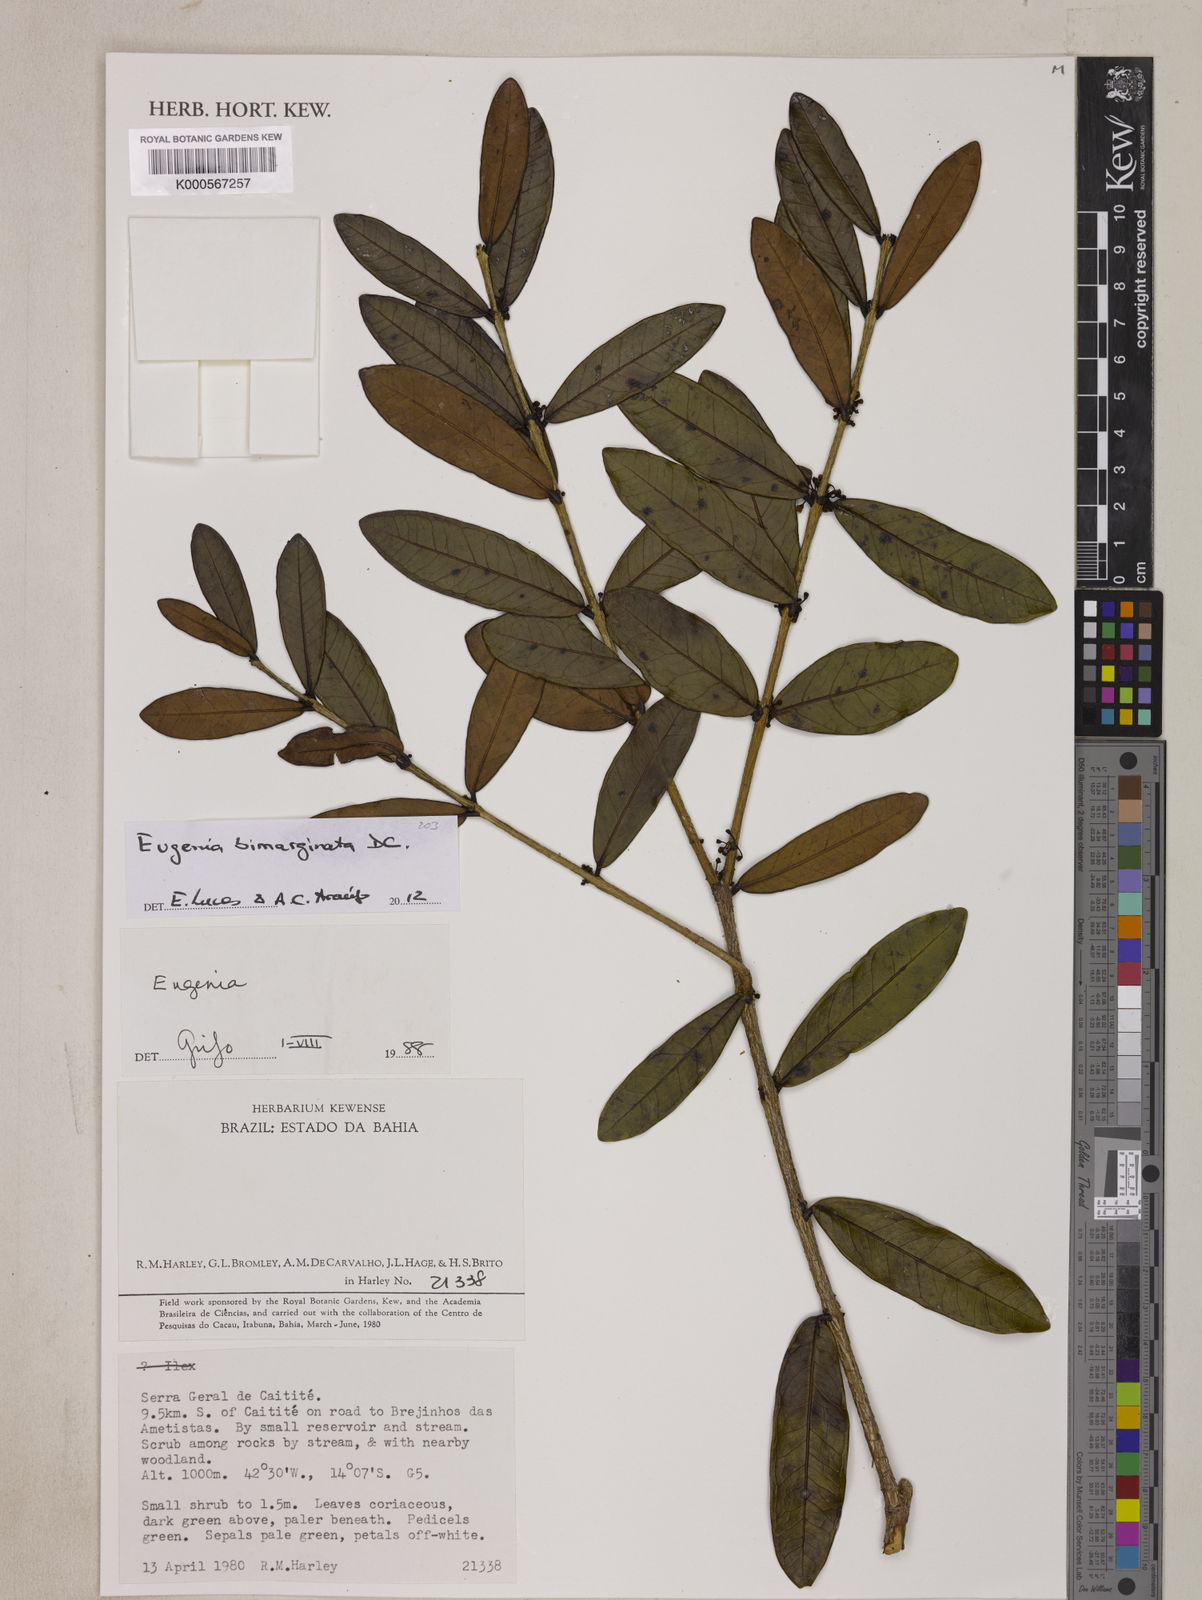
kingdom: Plantae
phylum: Tracheophyta
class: Magnoliopsida
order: Myrtales
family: Myrtaceae
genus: Eugenia
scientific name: Eugenia bimarginata
